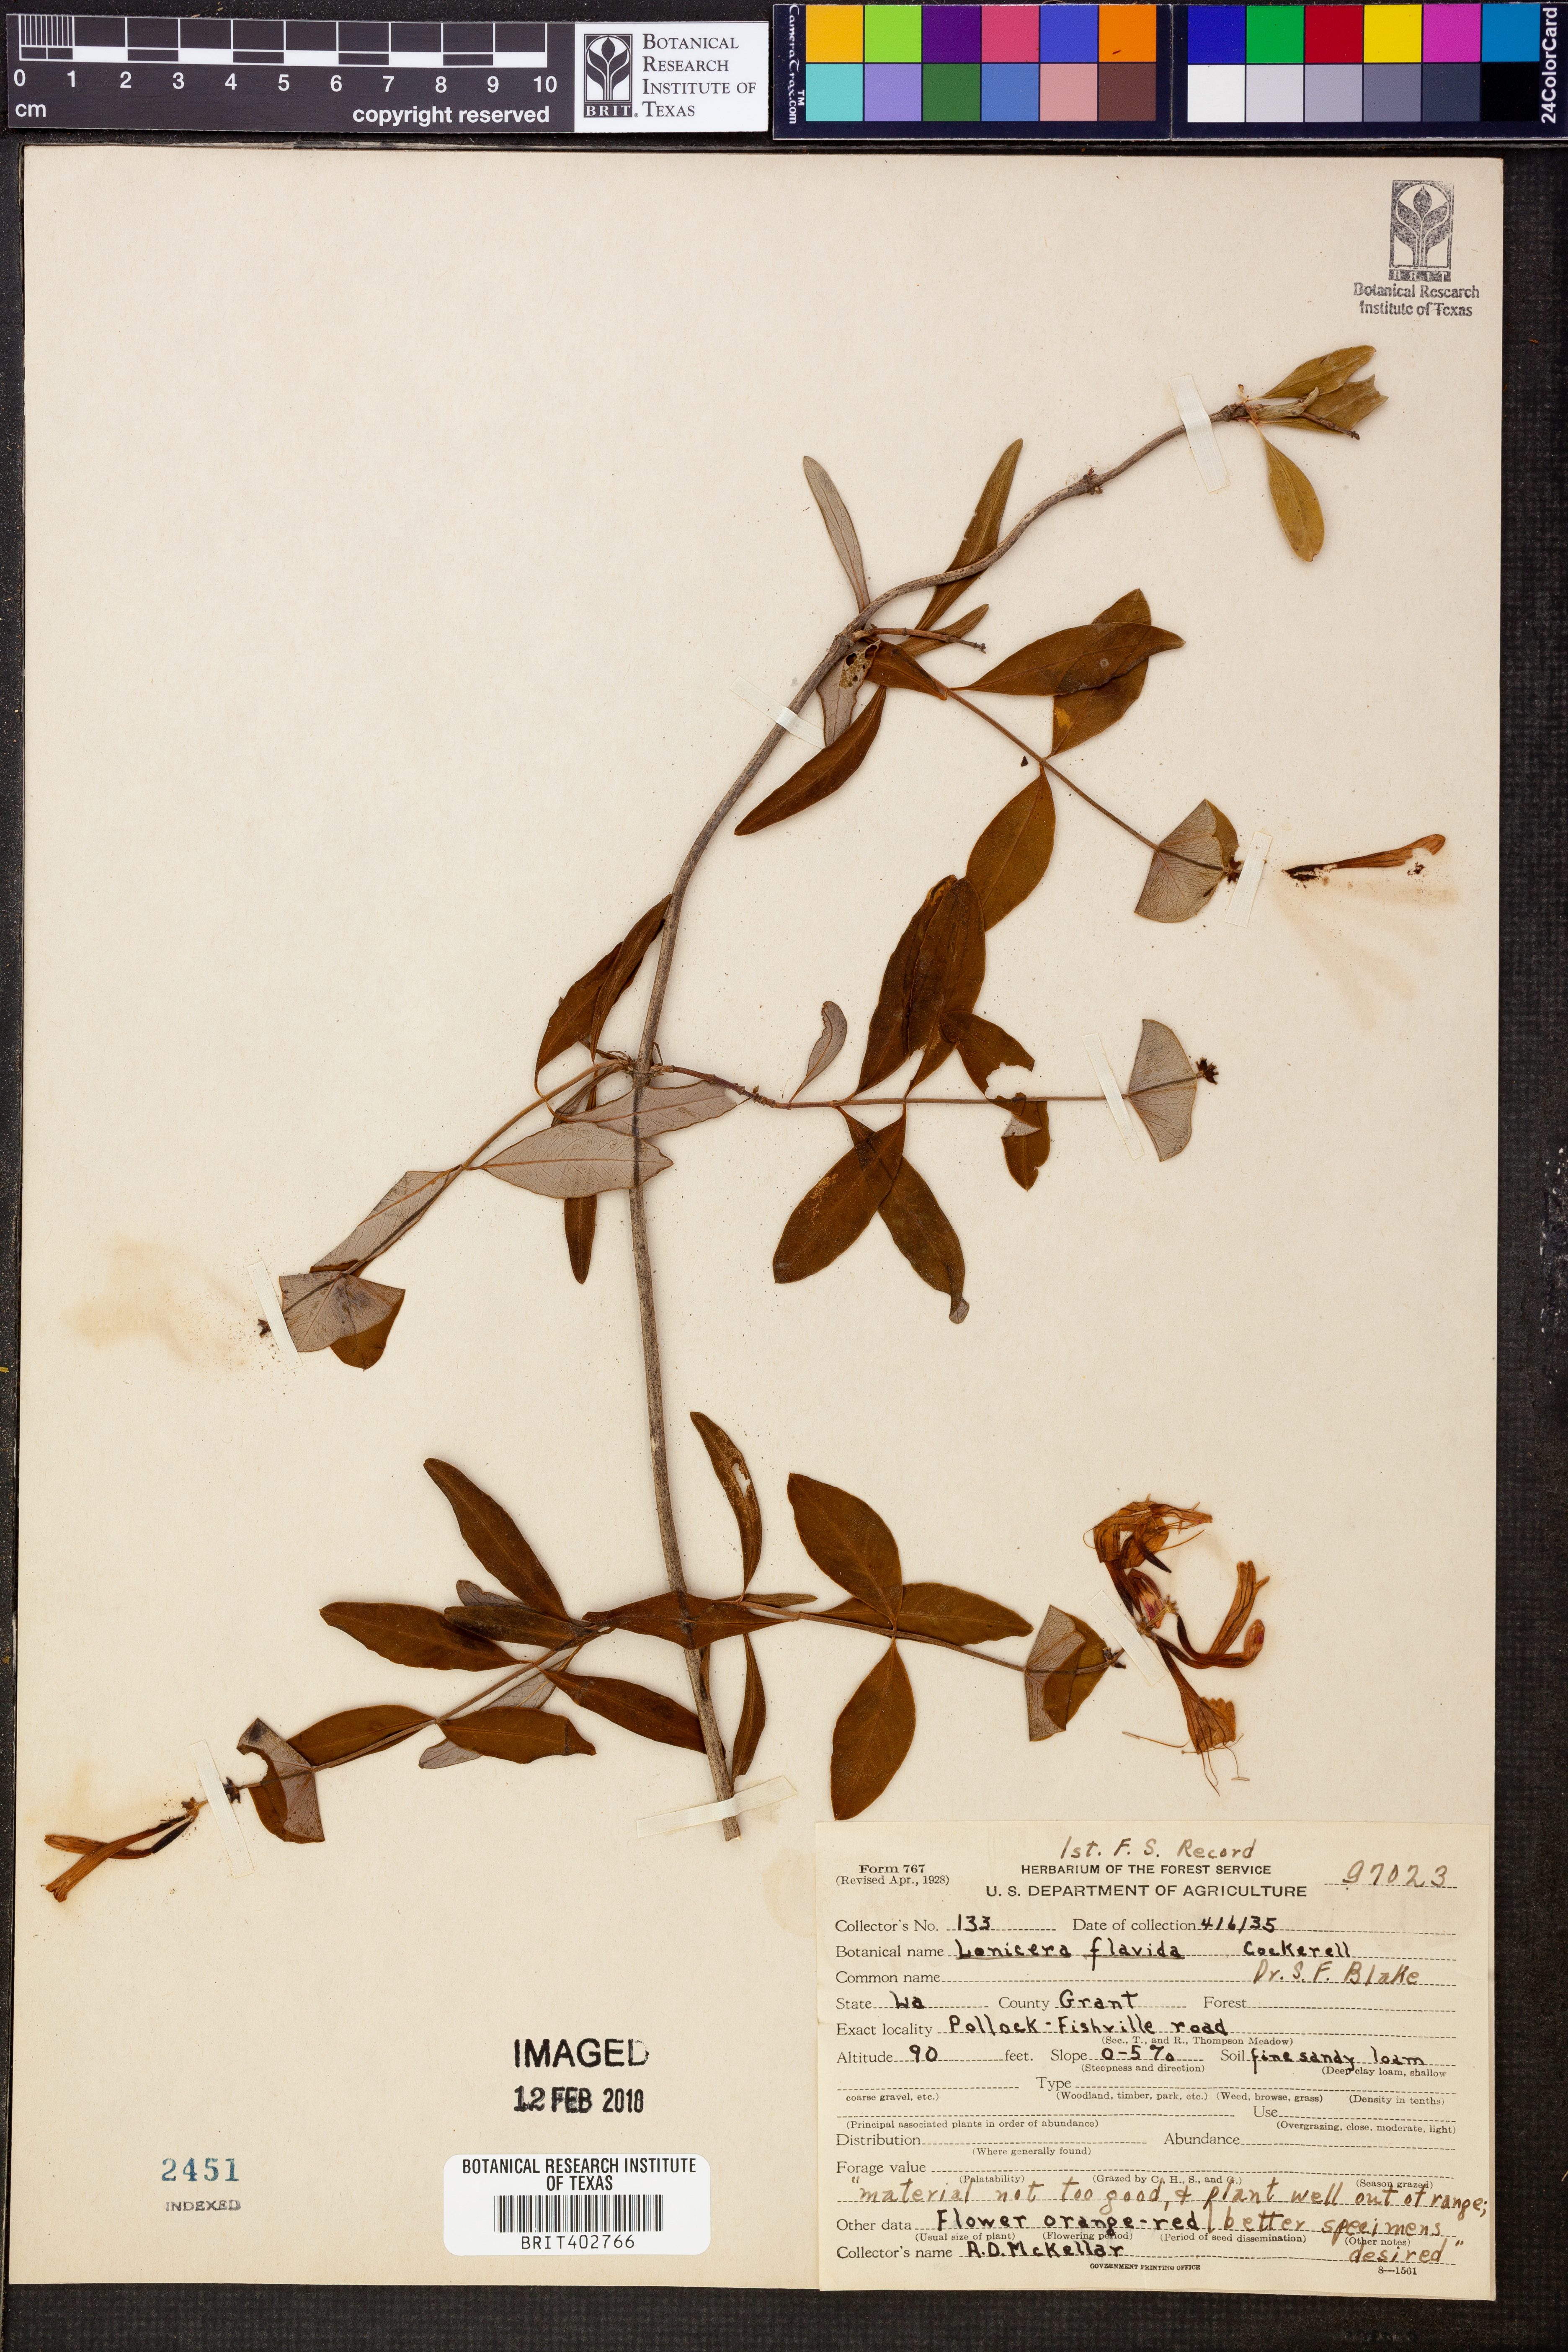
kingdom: Plantae
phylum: Tracheophyta
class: Magnoliopsida
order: Dipsacales
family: Caprifoliaceae
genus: Lonicera
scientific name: Lonicera flava
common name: Yellow honeysuckle
